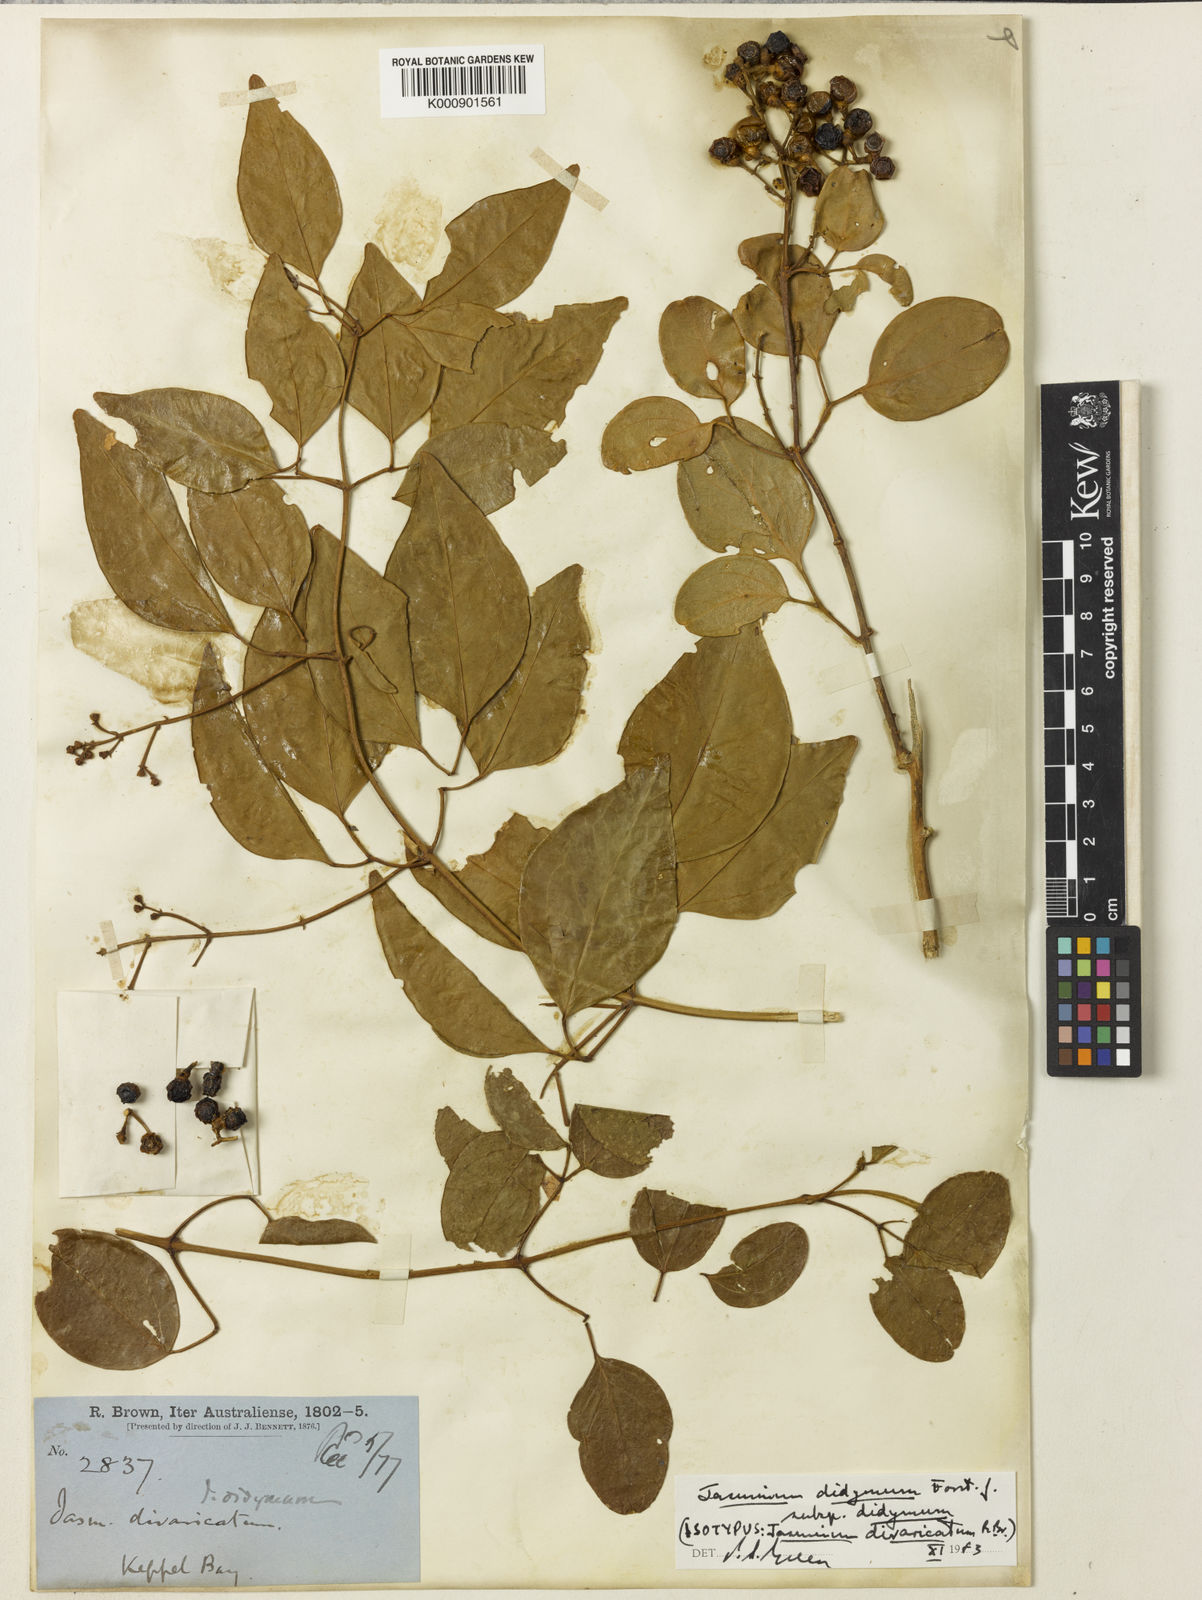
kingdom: Plantae
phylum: Tracheophyta
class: Magnoliopsida
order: Lamiales
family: Oleaceae
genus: Jasminum
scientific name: Jasminum didymum
